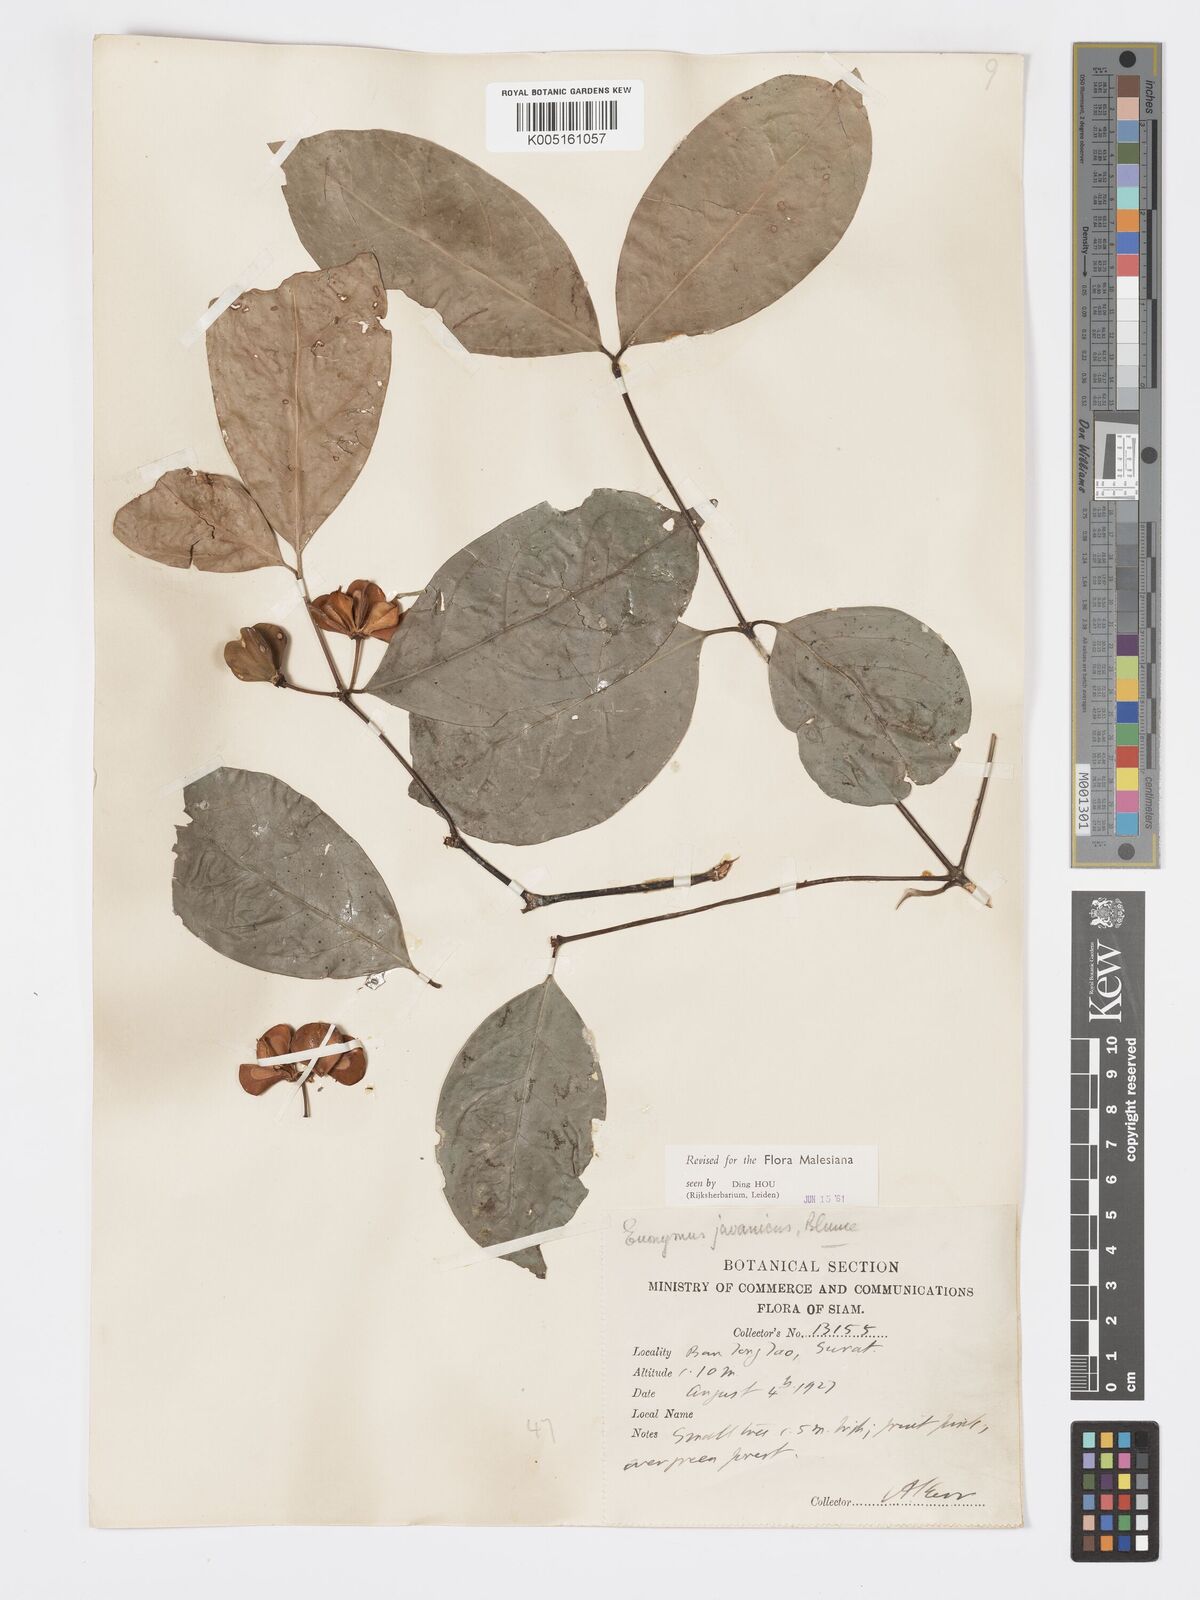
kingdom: Plantae
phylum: Tracheophyta
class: Magnoliopsida
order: Celastrales
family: Celastraceae
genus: Euonymus
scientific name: Euonymus indicus
